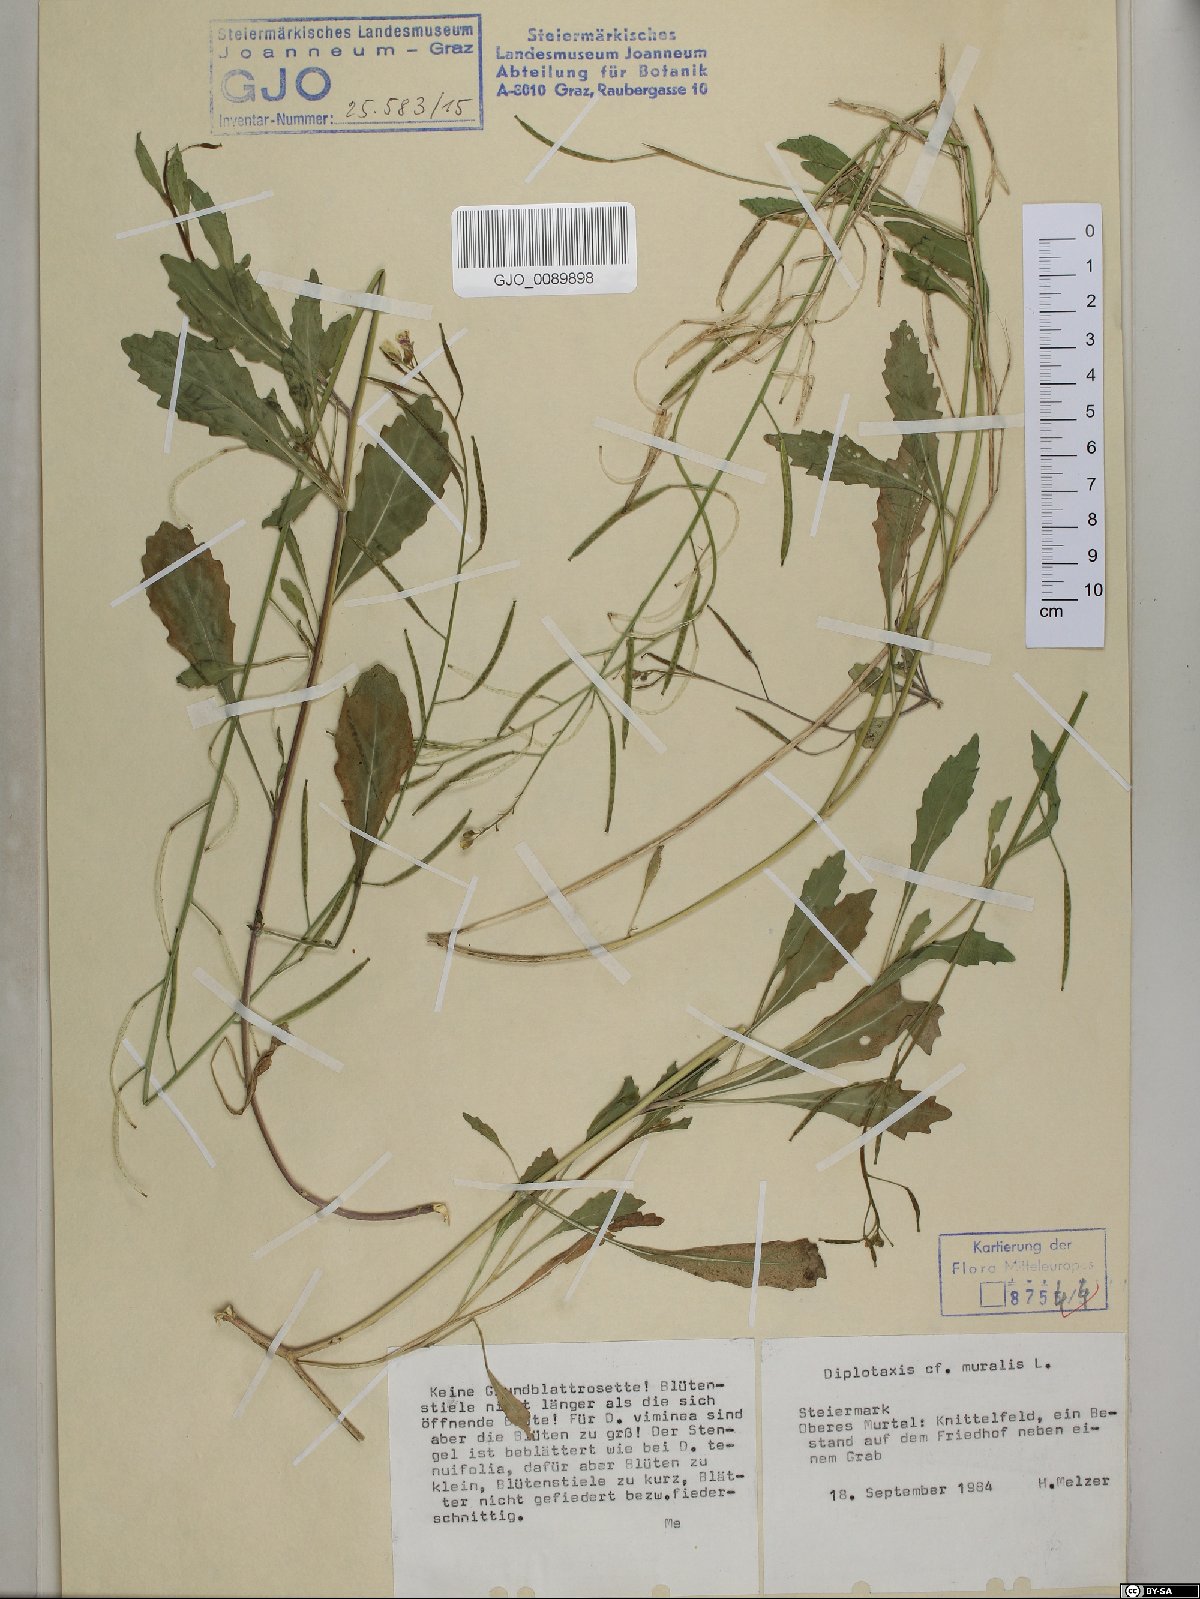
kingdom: Plantae
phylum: Tracheophyta
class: Magnoliopsida
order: Brassicales
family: Brassicaceae
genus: Diplotaxis
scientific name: Diplotaxis muralis
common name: Annual wall-rocket
